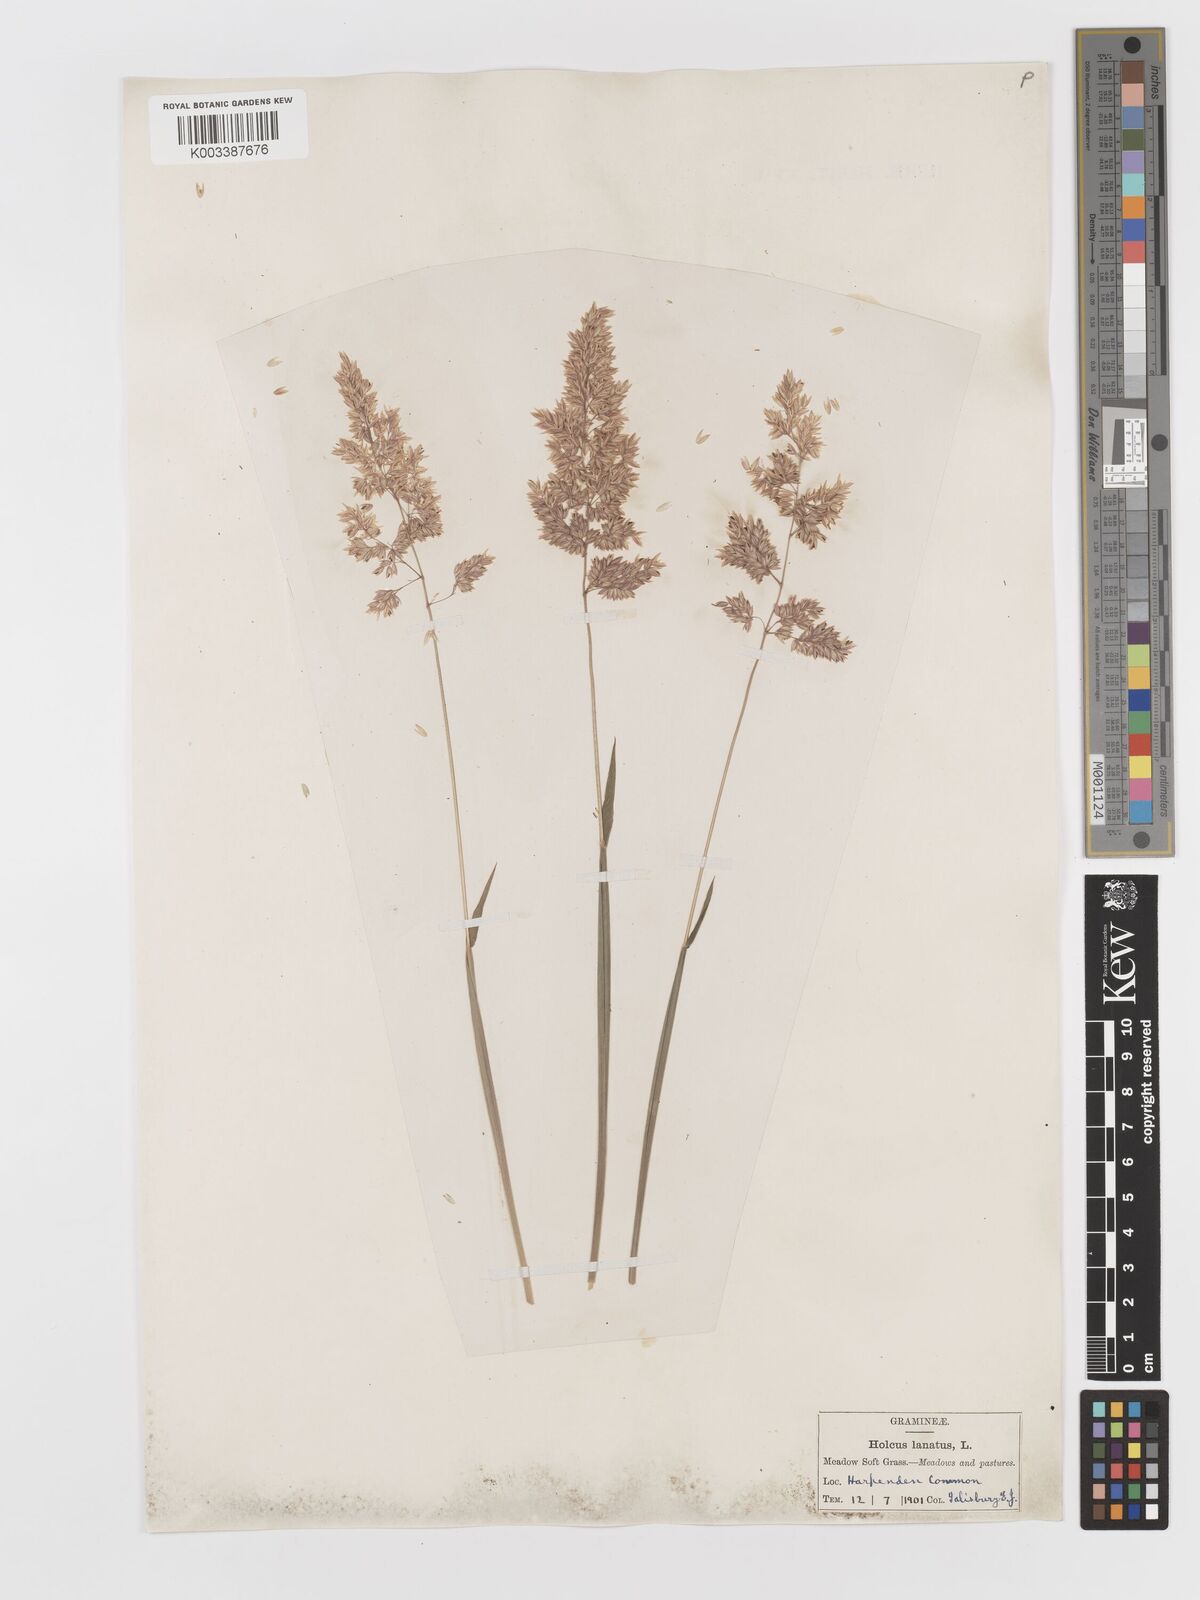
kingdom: Plantae
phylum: Tracheophyta
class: Liliopsida
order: Poales
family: Poaceae
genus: Holcus
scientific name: Holcus lanatus
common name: Yorkshire-fog
